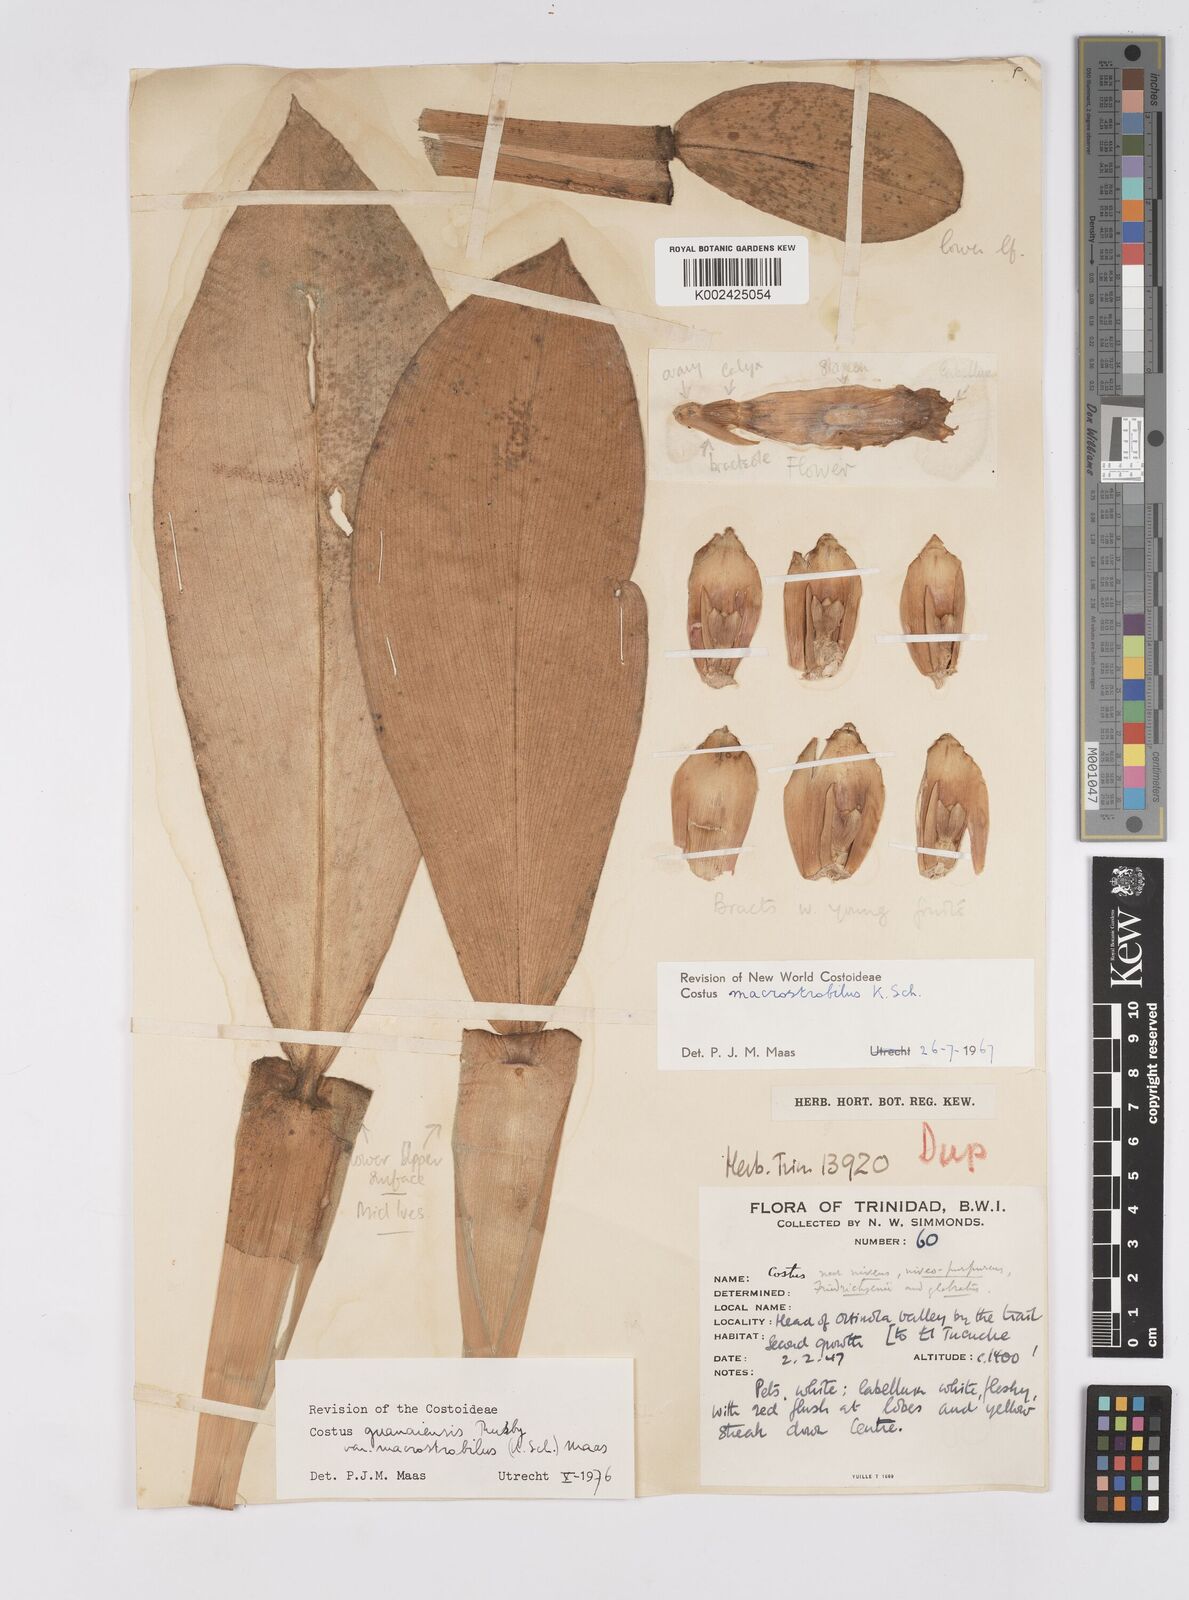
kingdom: Plantae
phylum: Tracheophyta
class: Liliopsida
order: Zingiberales
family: Costaceae
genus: Costus
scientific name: Costus guanaiensis
